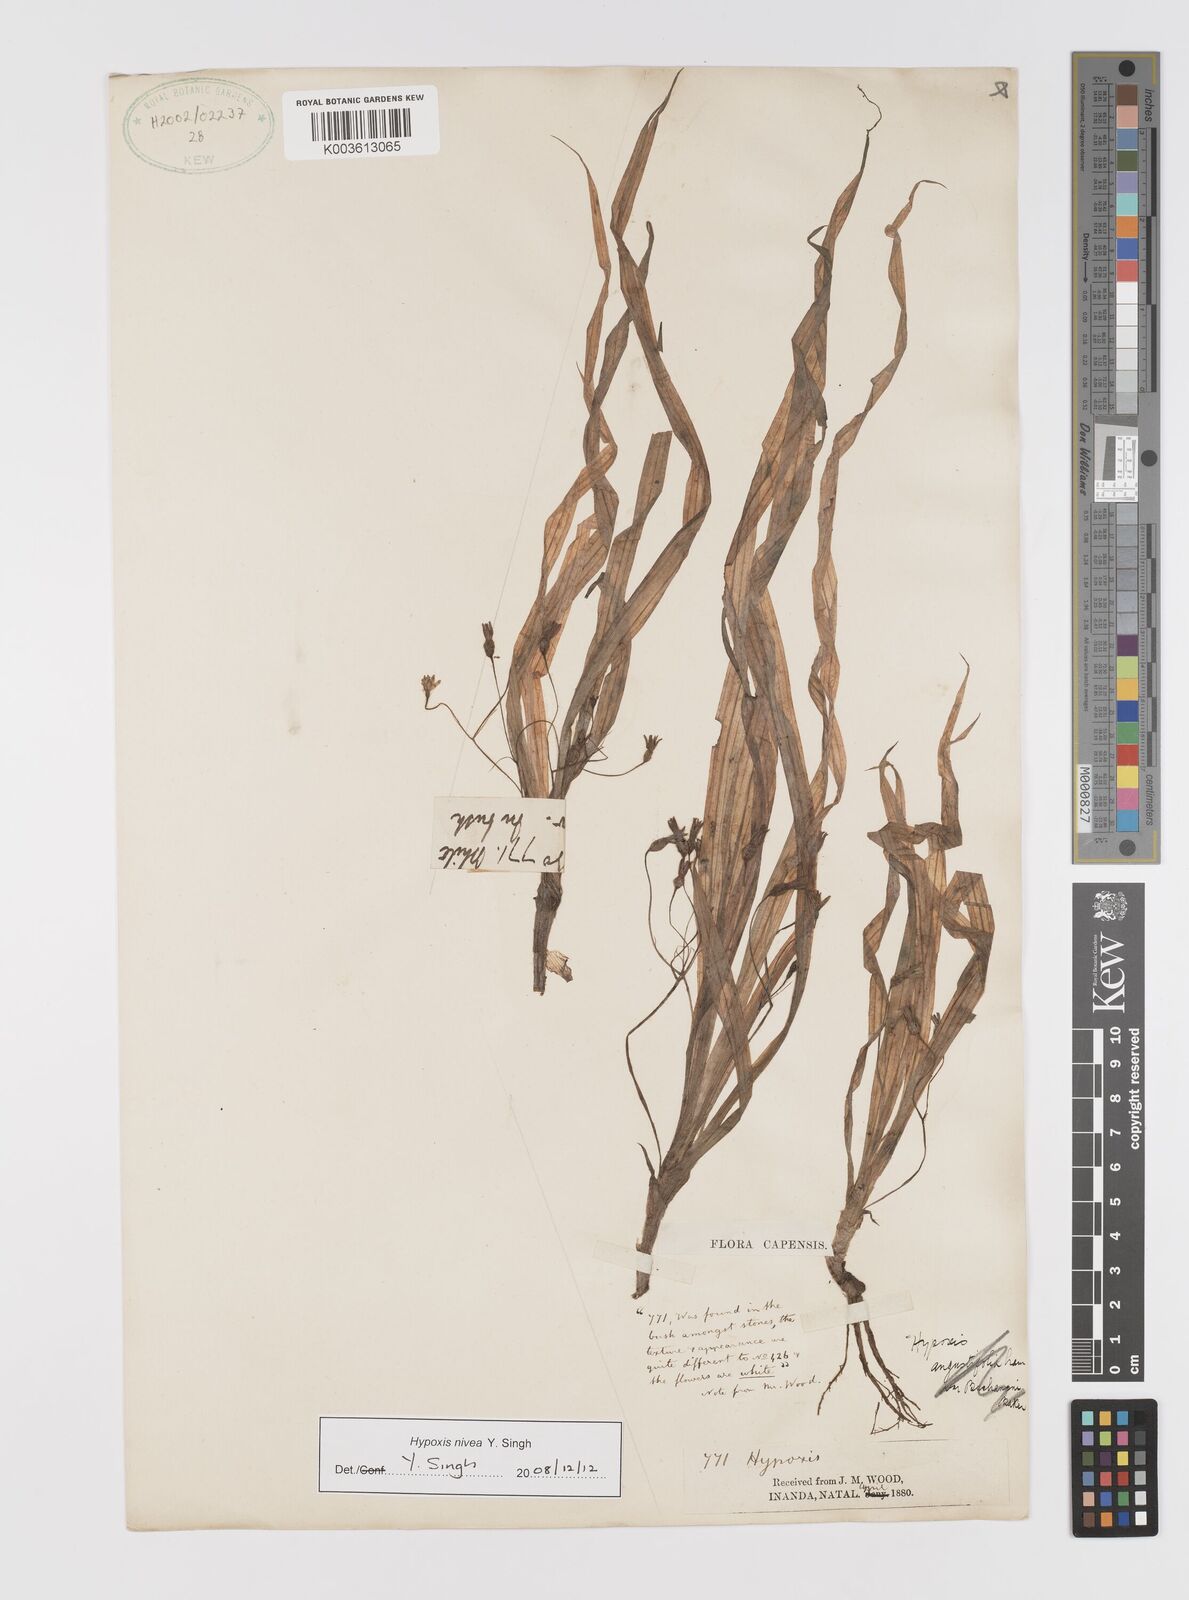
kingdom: Plantae
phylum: Tracheophyta
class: Liliopsida
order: Asparagales
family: Hypoxidaceae
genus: Hypoxis
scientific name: Hypoxis nivea
